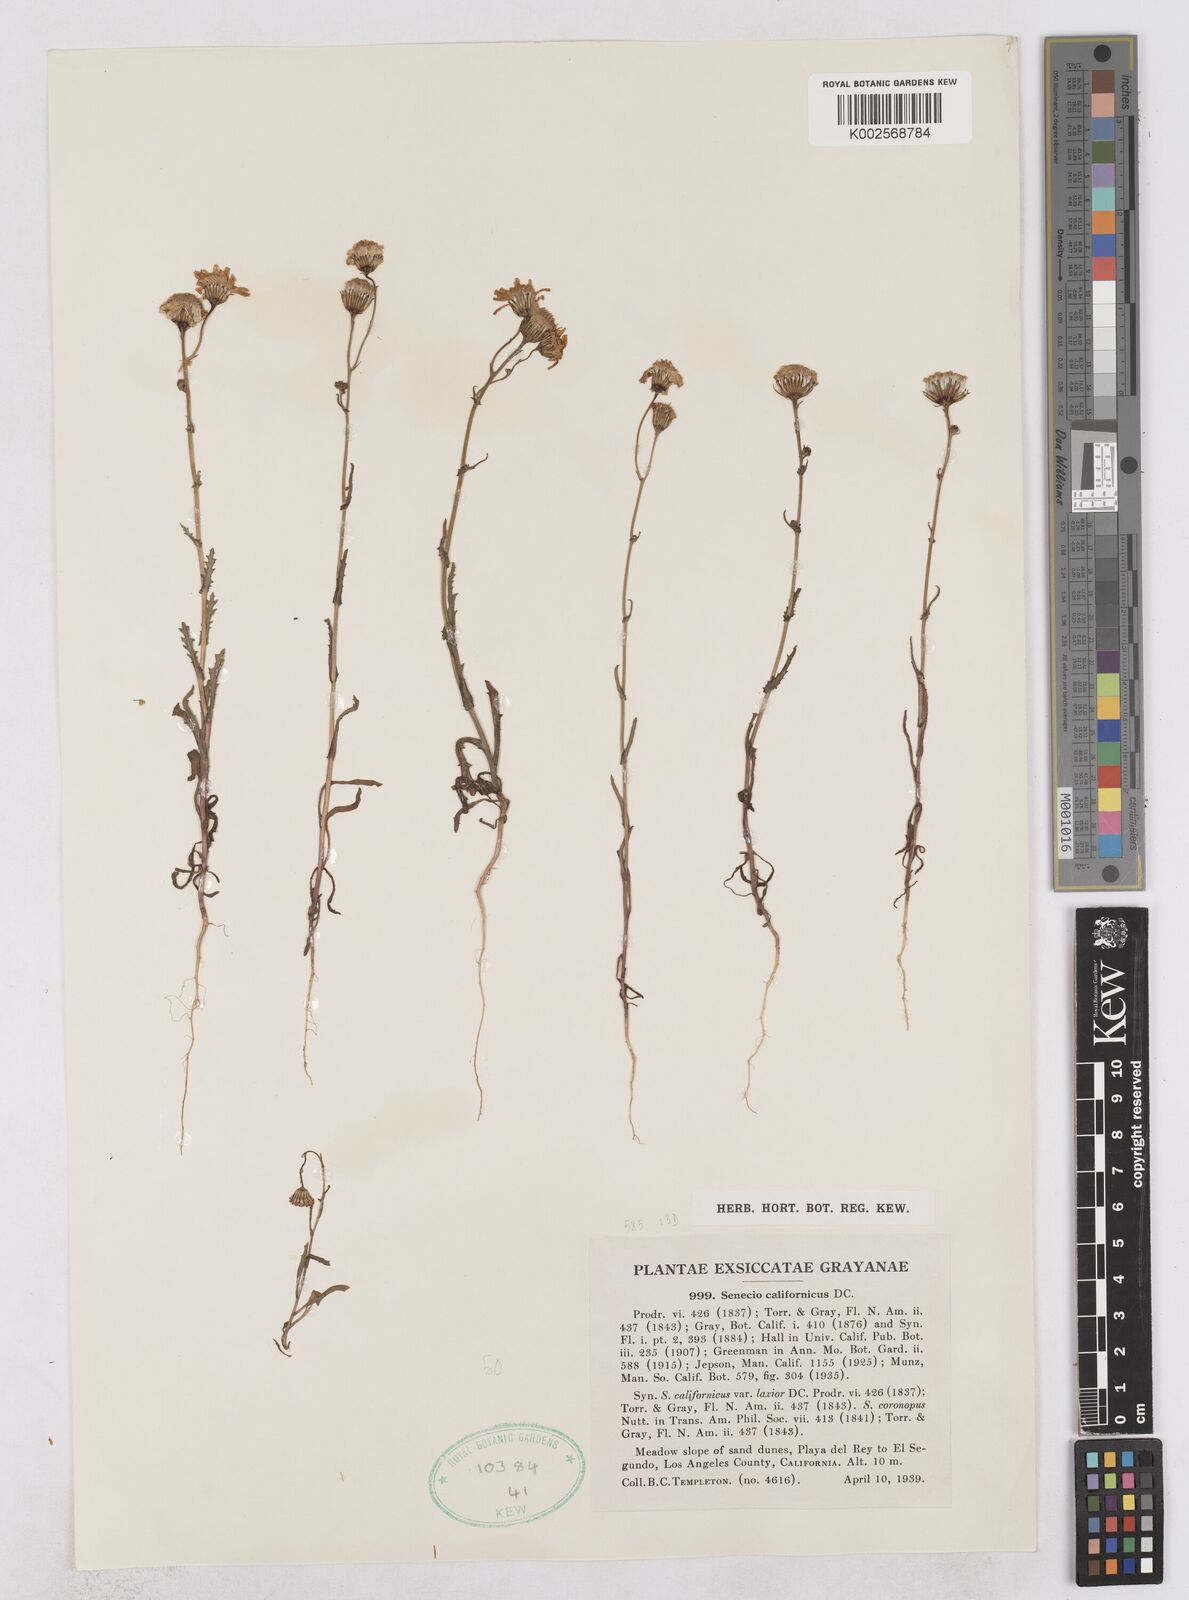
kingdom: Plantae
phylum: Tracheophyta
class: Magnoliopsida
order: Asterales
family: Asteraceae
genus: Senecio
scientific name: Senecio californicus
